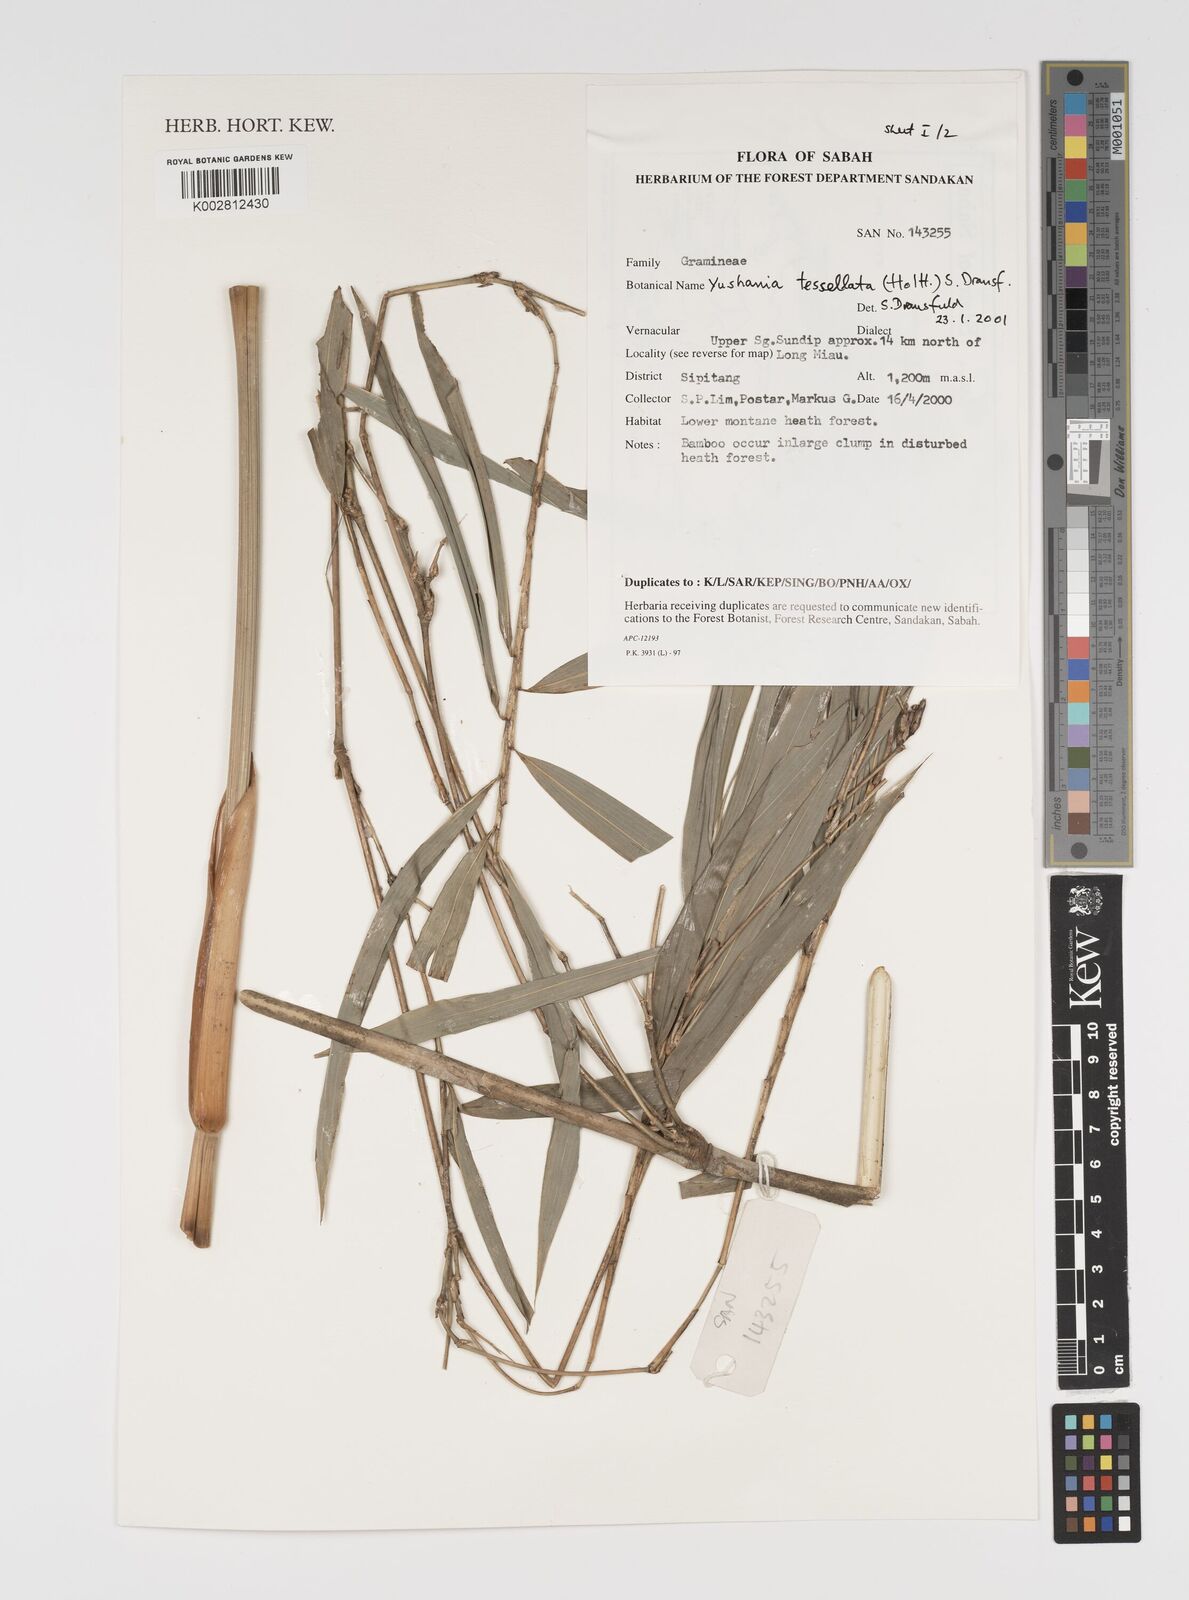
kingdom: Plantae
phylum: Tracheophyta
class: Liliopsida
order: Poales
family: Poaceae
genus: Yushania
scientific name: Yushania tessellata
